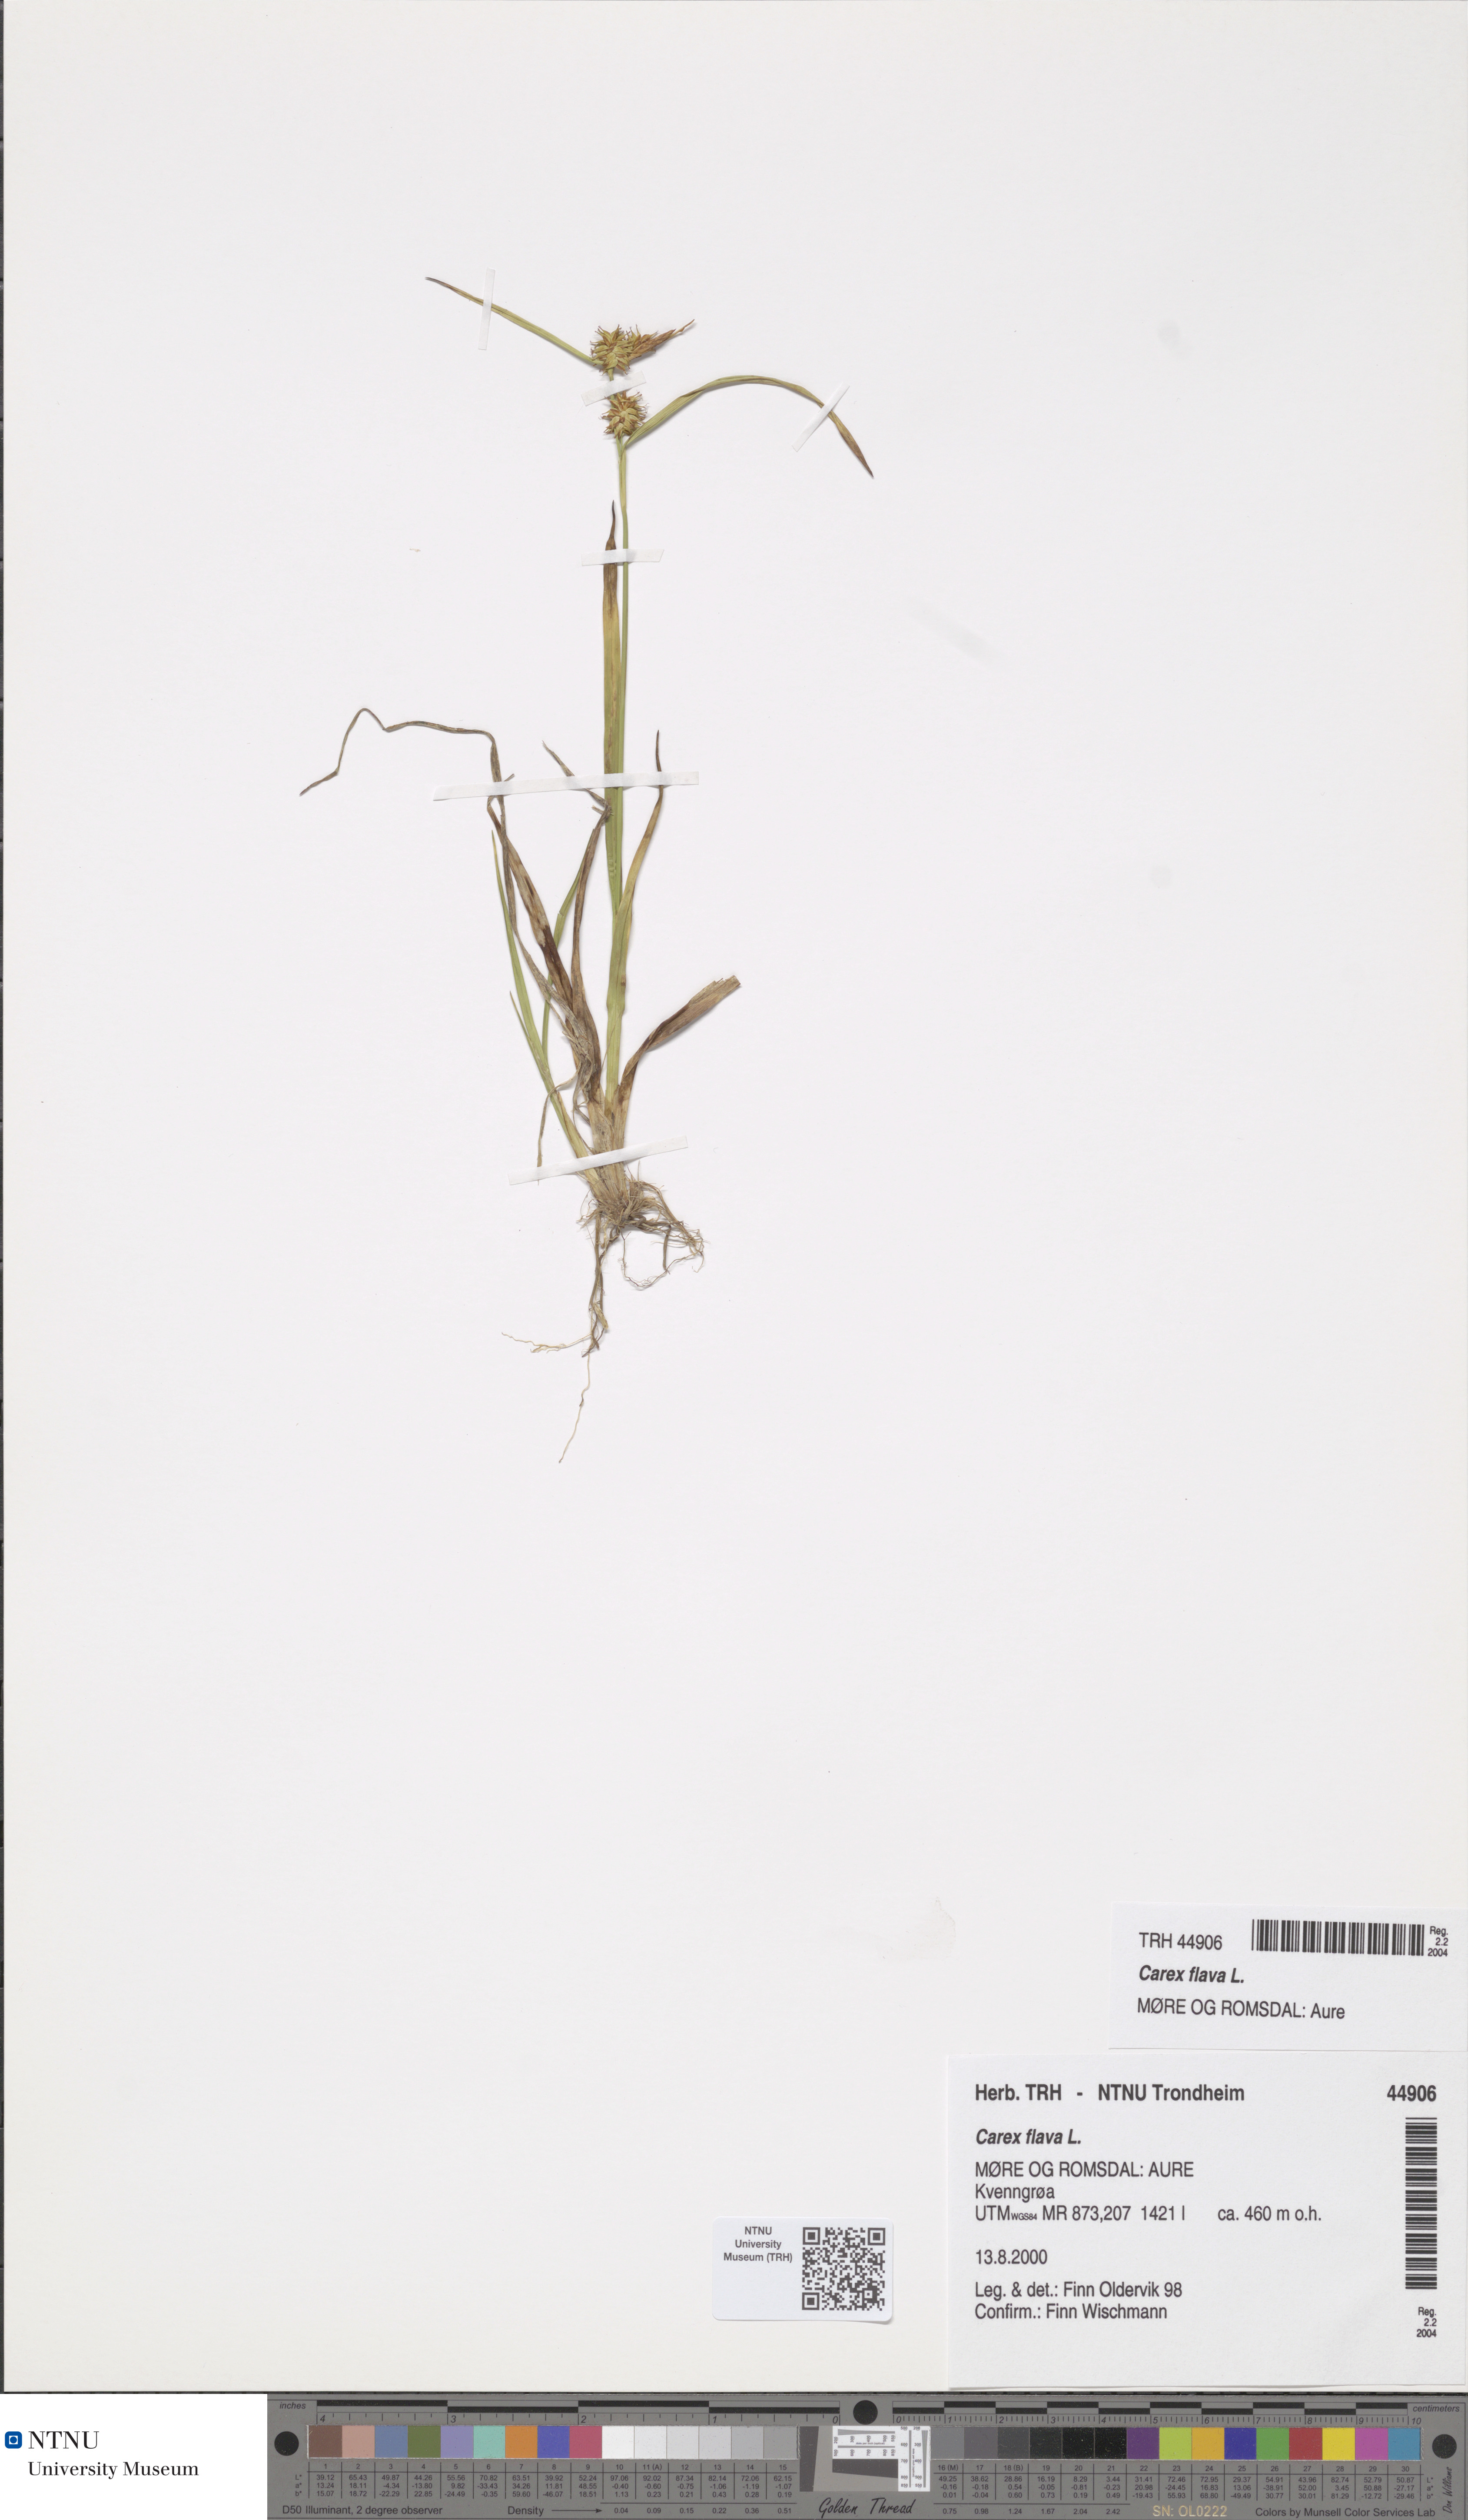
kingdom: Plantae
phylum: Tracheophyta
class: Liliopsida
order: Poales
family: Cyperaceae
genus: Carex
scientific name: Carex flava
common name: Large yellow-sedge
